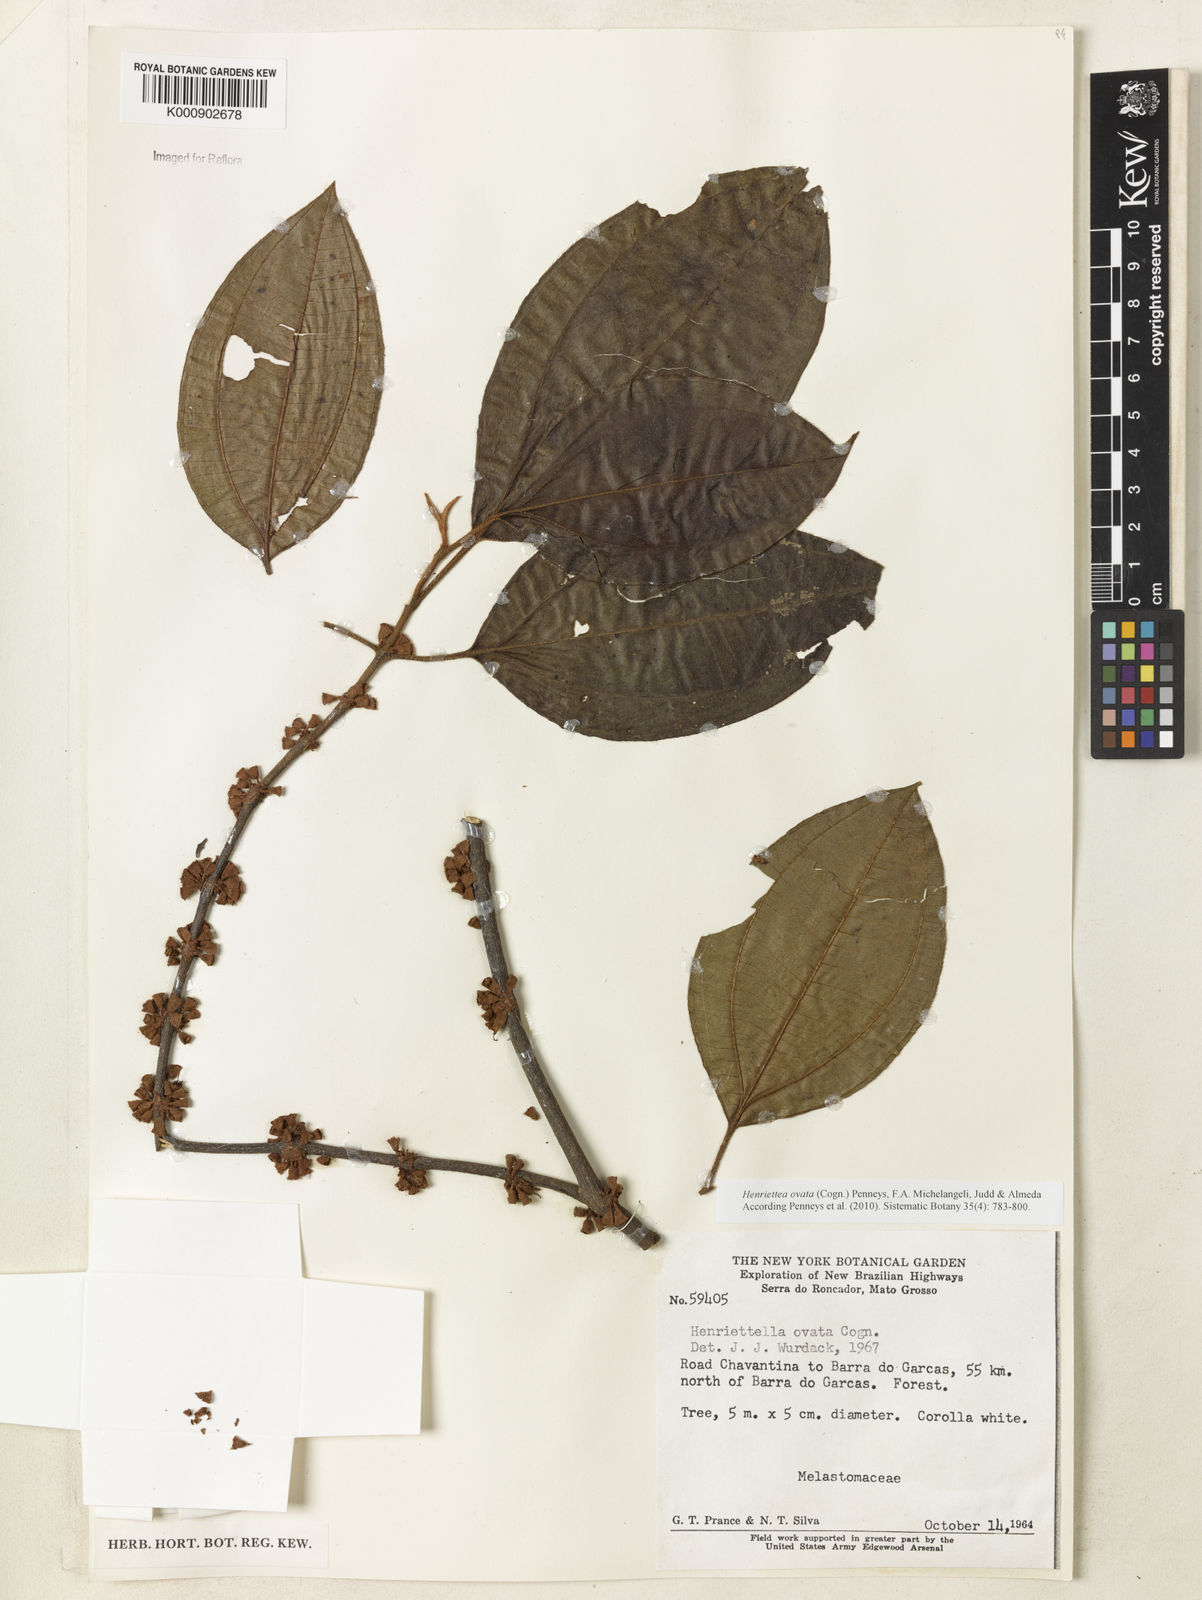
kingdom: Plantae
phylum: Tracheophyta
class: Magnoliopsida
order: Myrtales
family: Melastomataceae
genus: Henriettea
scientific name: Henriettea ovata
